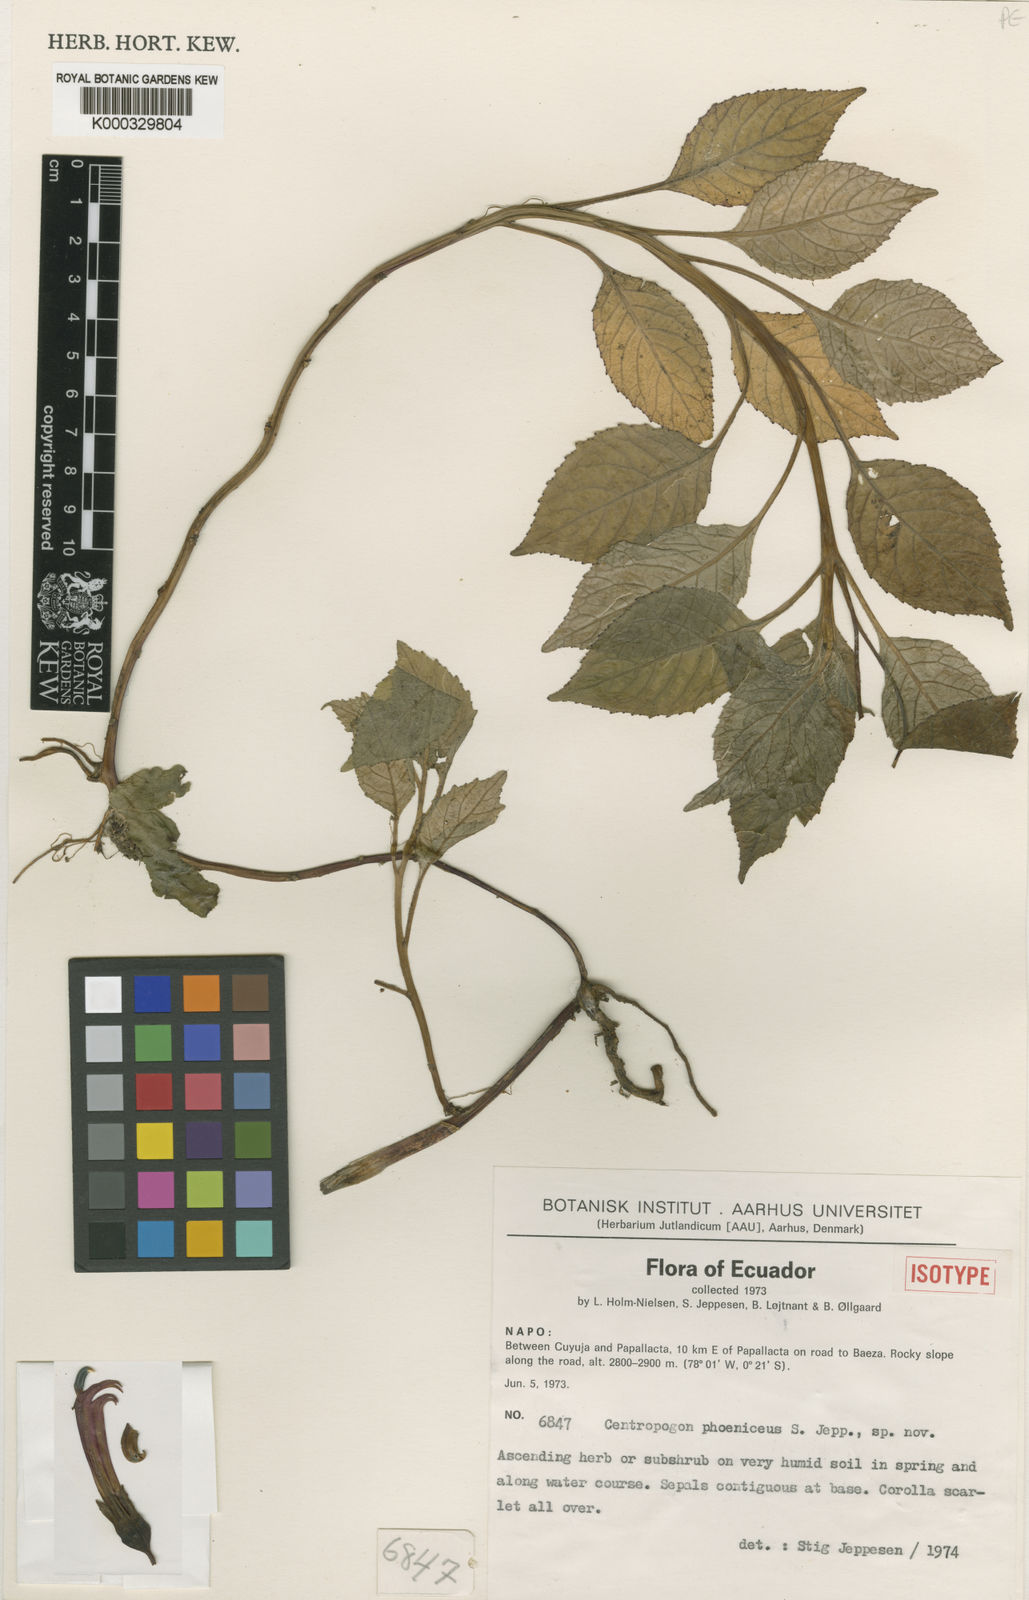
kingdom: Plantae
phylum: Tracheophyta
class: Magnoliopsida
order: Asterales
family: Campanulaceae
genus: Centropogon
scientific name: Centropogon phoeniceus
